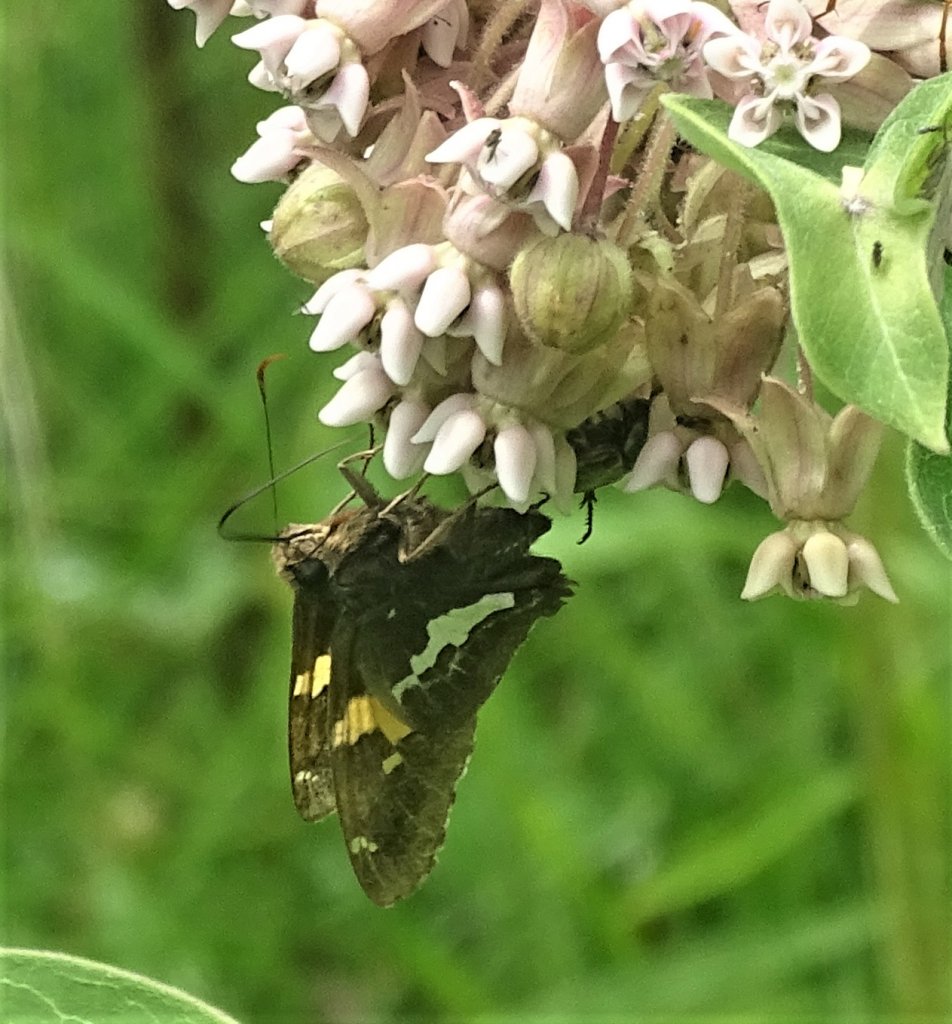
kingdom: Animalia
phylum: Arthropoda
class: Insecta
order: Lepidoptera
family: Hesperiidae
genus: Epargyreus
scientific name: Epargyreus clarus
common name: Silver-spotted Skipper
